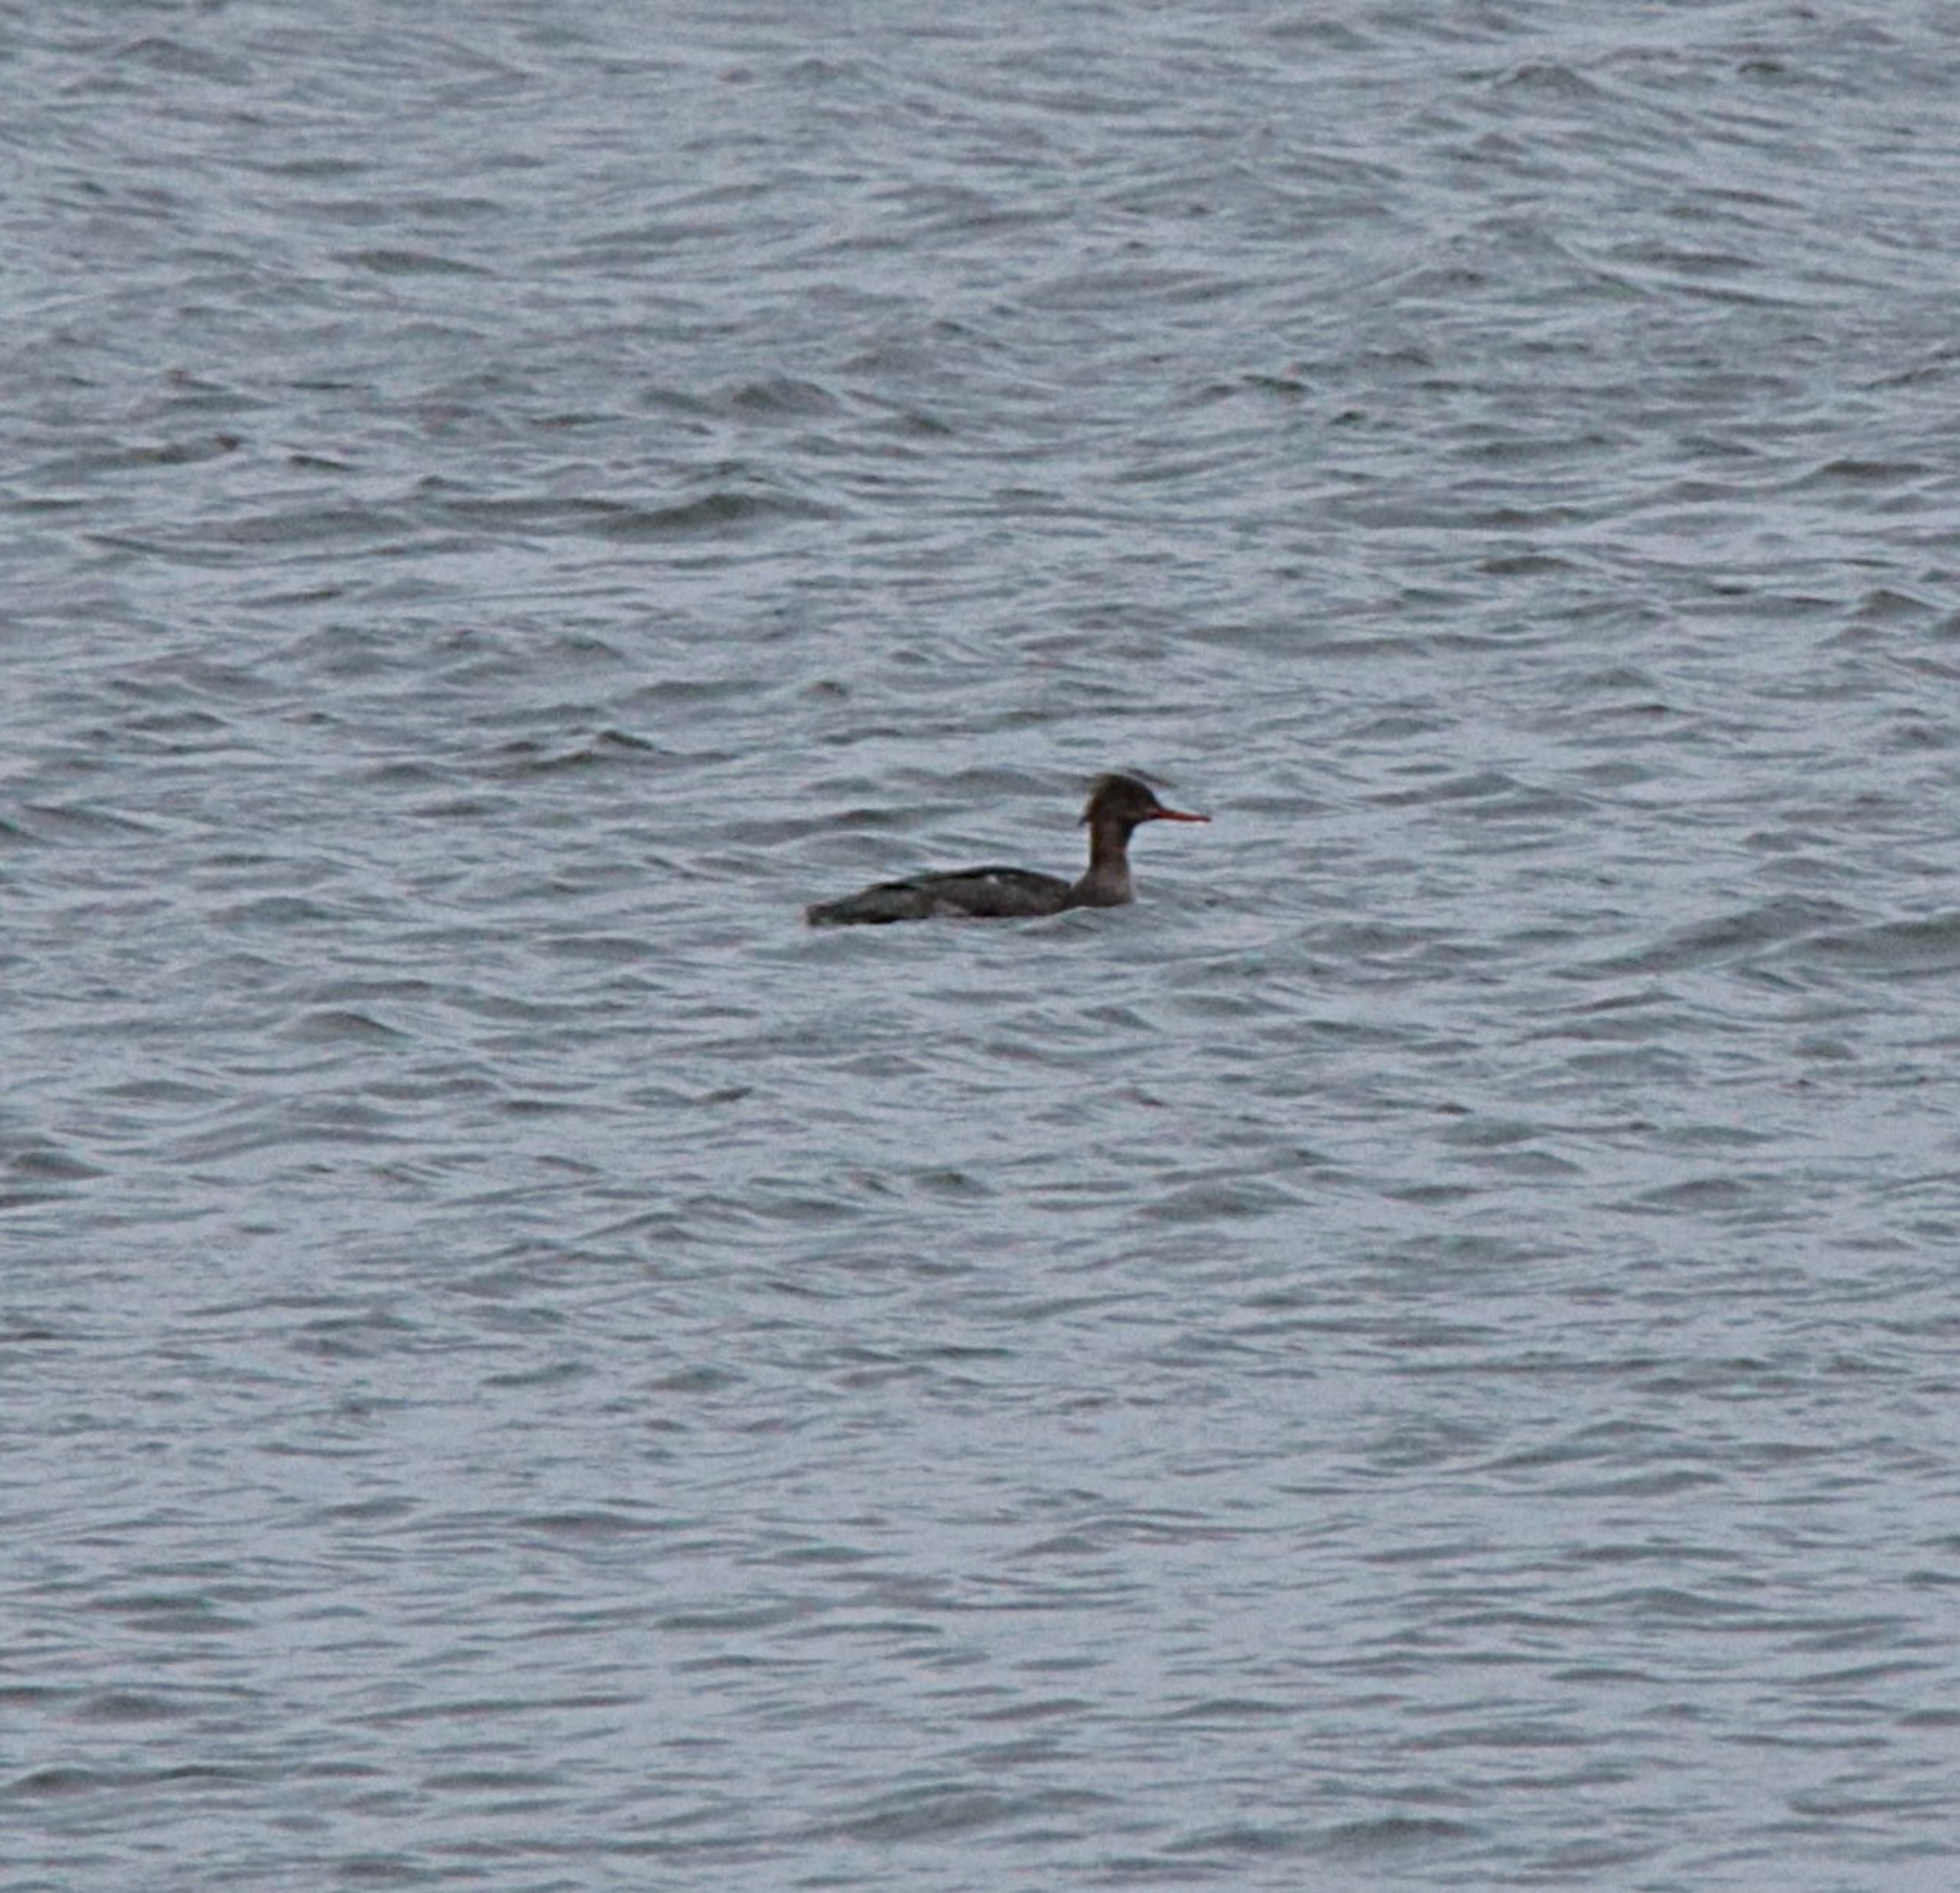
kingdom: Animalia
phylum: Chordata
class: Aves
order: Anseriformes
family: Anatidae
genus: Mergus
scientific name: Mergus serrator
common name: Toppet skallesluger
